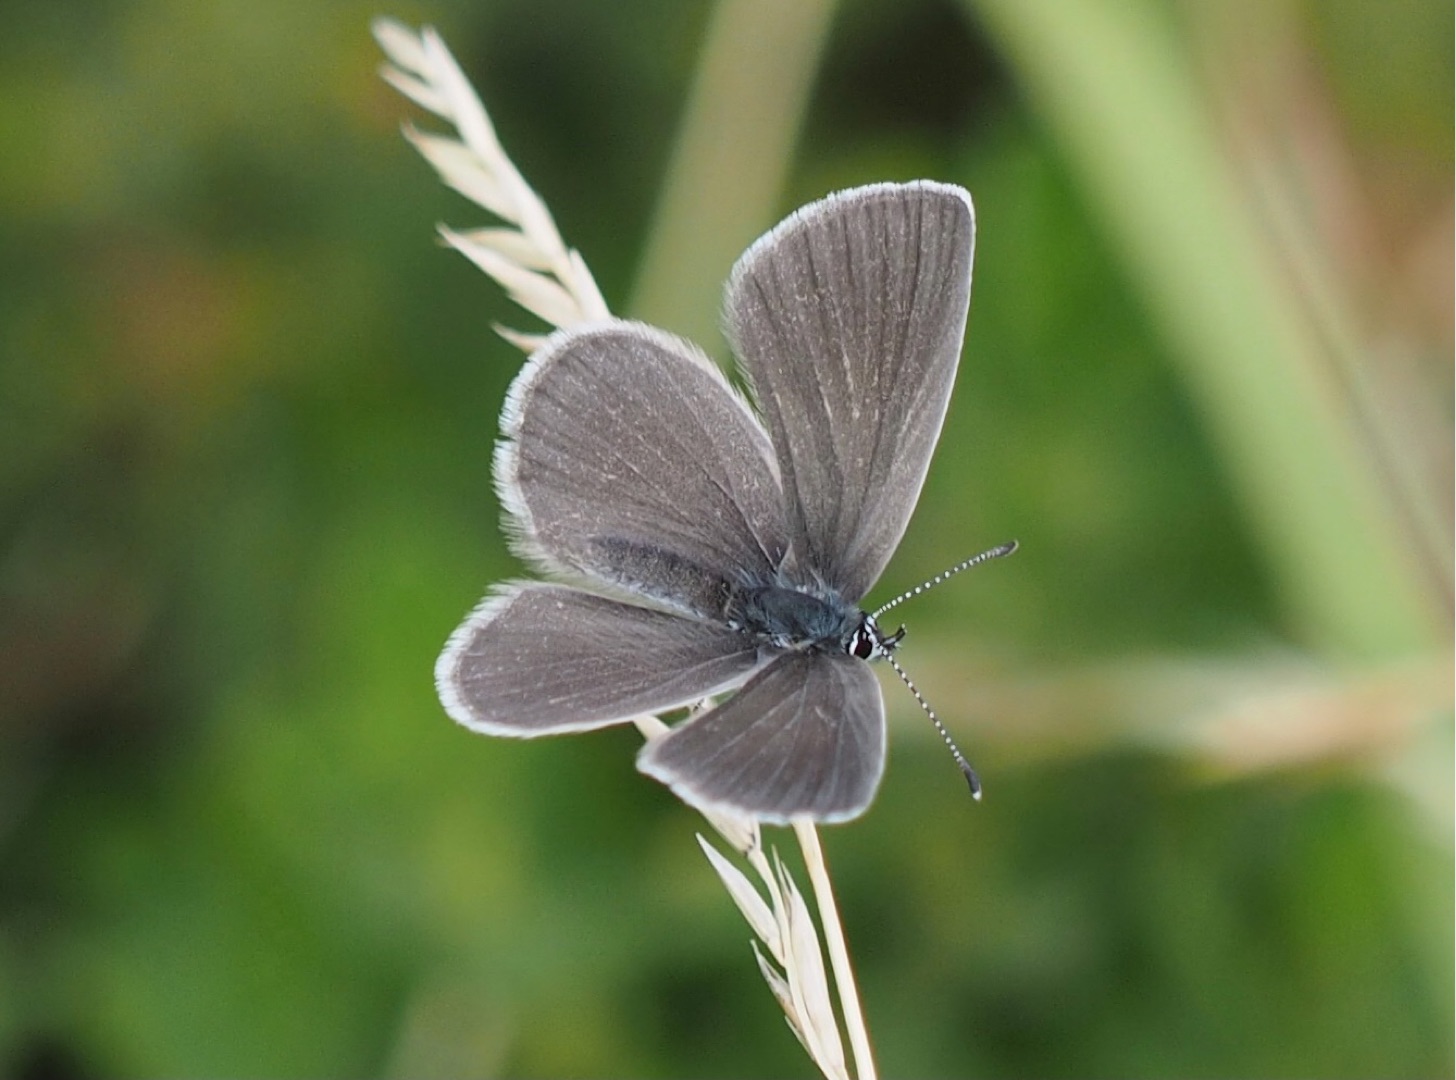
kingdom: Animalia
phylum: Arthropoda
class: Insecta
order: Lepidoptera
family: Lycaenidae
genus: Cupido
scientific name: Cupido minimus
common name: Dværgblåfugl
